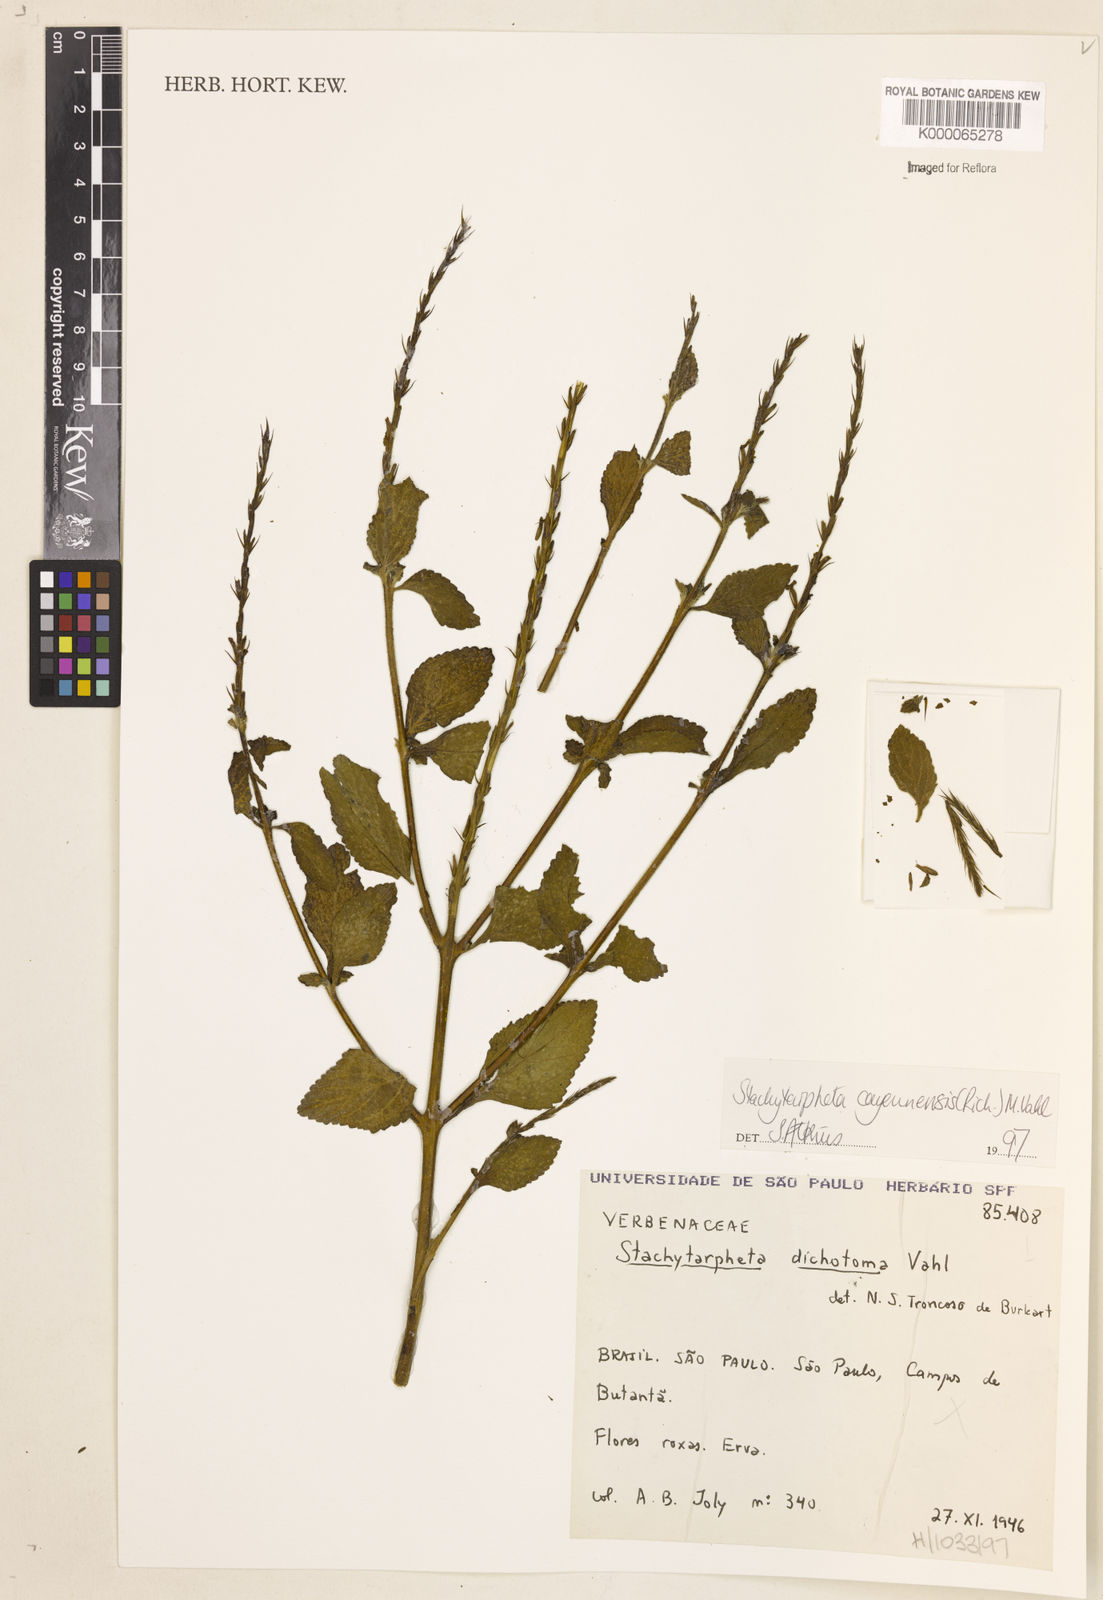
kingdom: Plantae
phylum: Tracheophyta
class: Magnoliopsida
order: Lamiales
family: Verbenaceae
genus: Stachytarpheta
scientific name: Stachytarpheta cayennensis
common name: Cayenne porterweed
